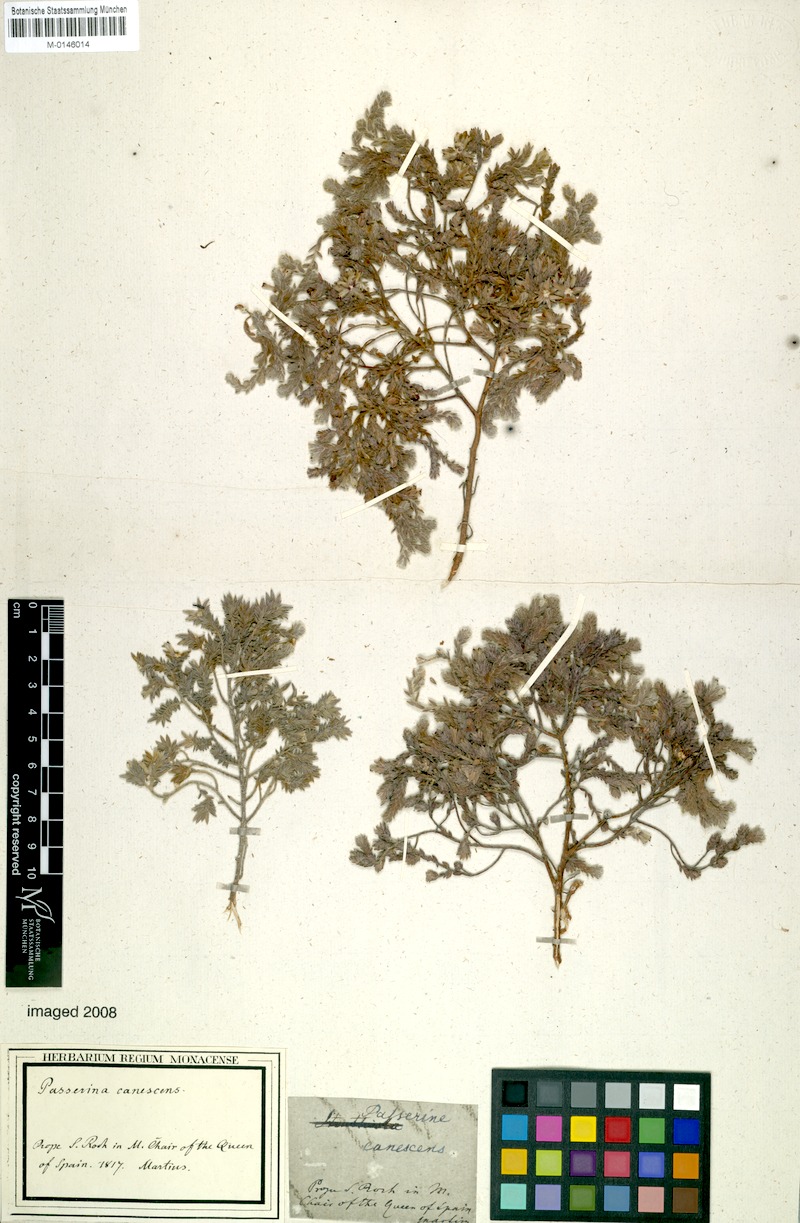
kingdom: Plantae
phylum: Tracheophyta
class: Magnoliopsida
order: Malvales
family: Thymelaeaceae
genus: Thymelaea
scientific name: Thymelaea lanuginosa
